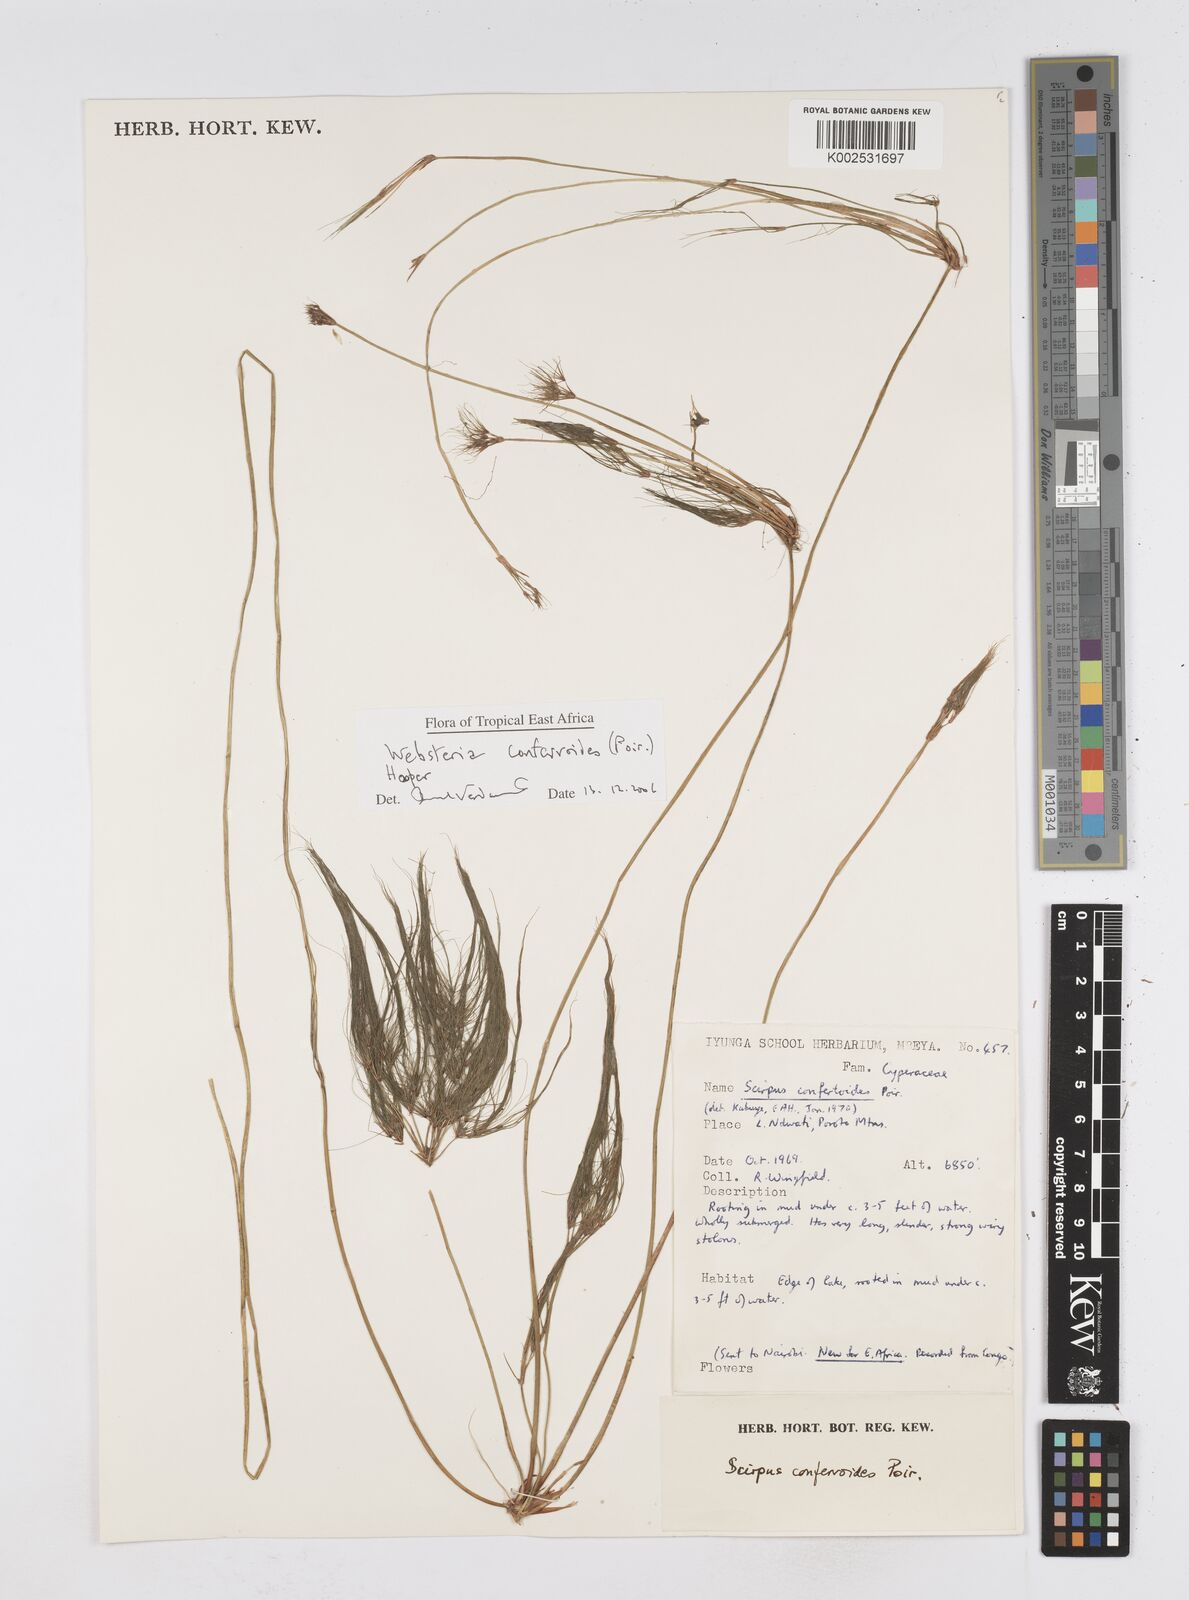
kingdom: Plantae
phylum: Tracheophyta
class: Liliopsida
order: Poales
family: Cyperaceae
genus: Eleocharis
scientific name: Eleocharis confervoides
